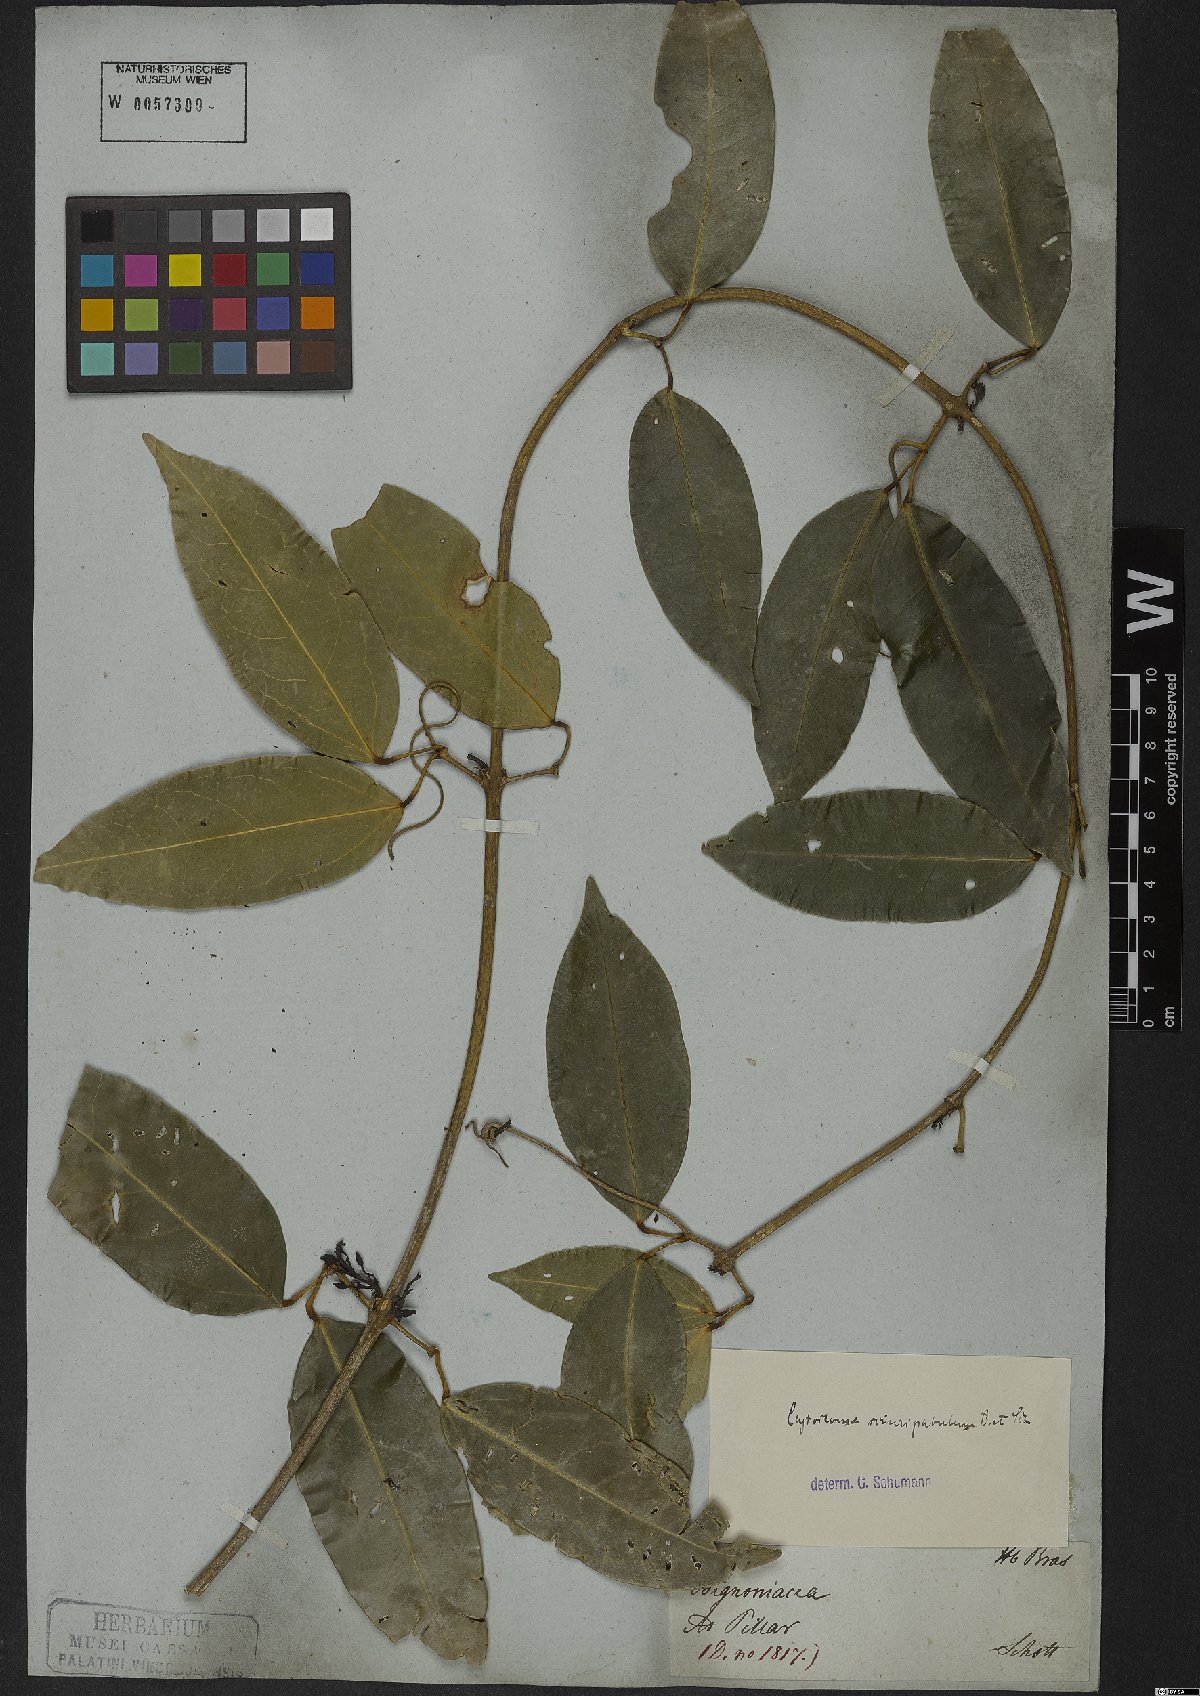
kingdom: Plantae
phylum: Tracheophyta
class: Magnoliopsida
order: Lamiales
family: Bignoniaceae
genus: Bignonia
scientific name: Bignonia sciruipabula
